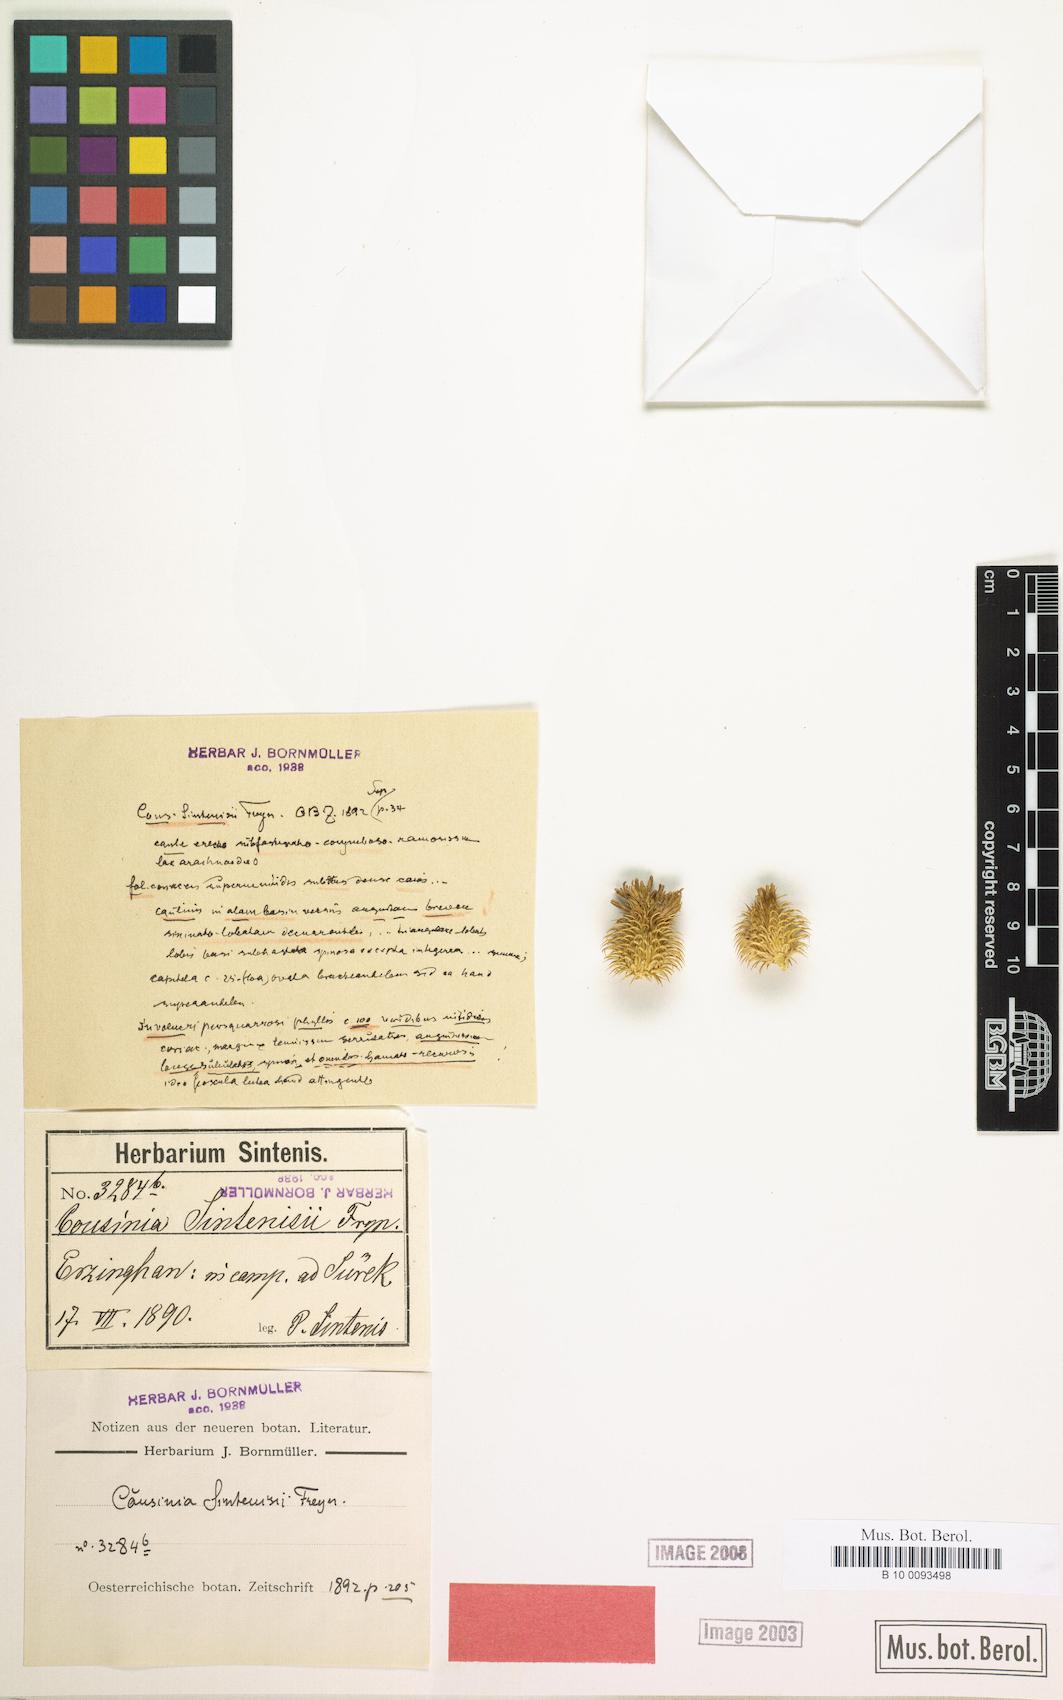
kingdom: Plantae
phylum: Tracheophyta
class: Magnoliopsida
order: Asterales
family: Asteraceae
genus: Cousinia
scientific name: Cousinia sintenisii
